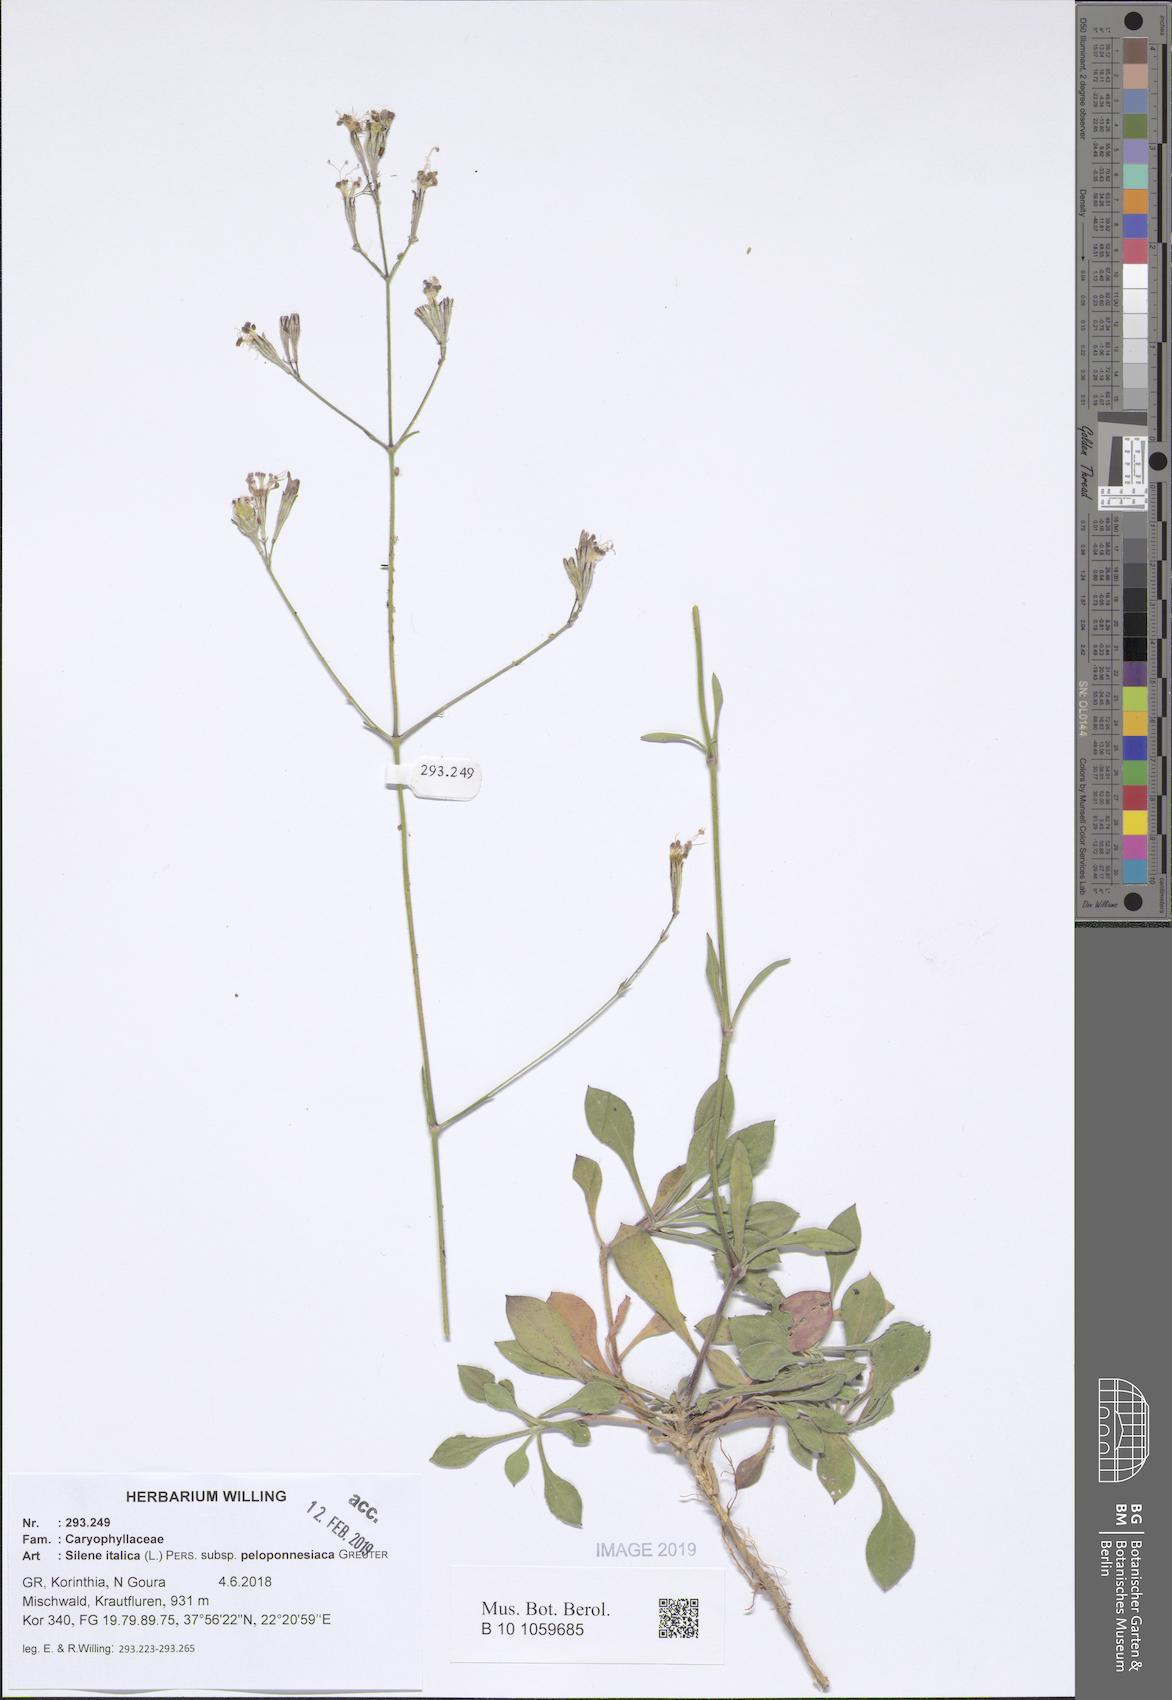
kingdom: Plantae
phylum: Tracheophyta
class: Magnoliopsida
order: Caryophyllales
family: Caryophyllaceae
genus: Silene
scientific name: Silene italica
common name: Italian catchfly
